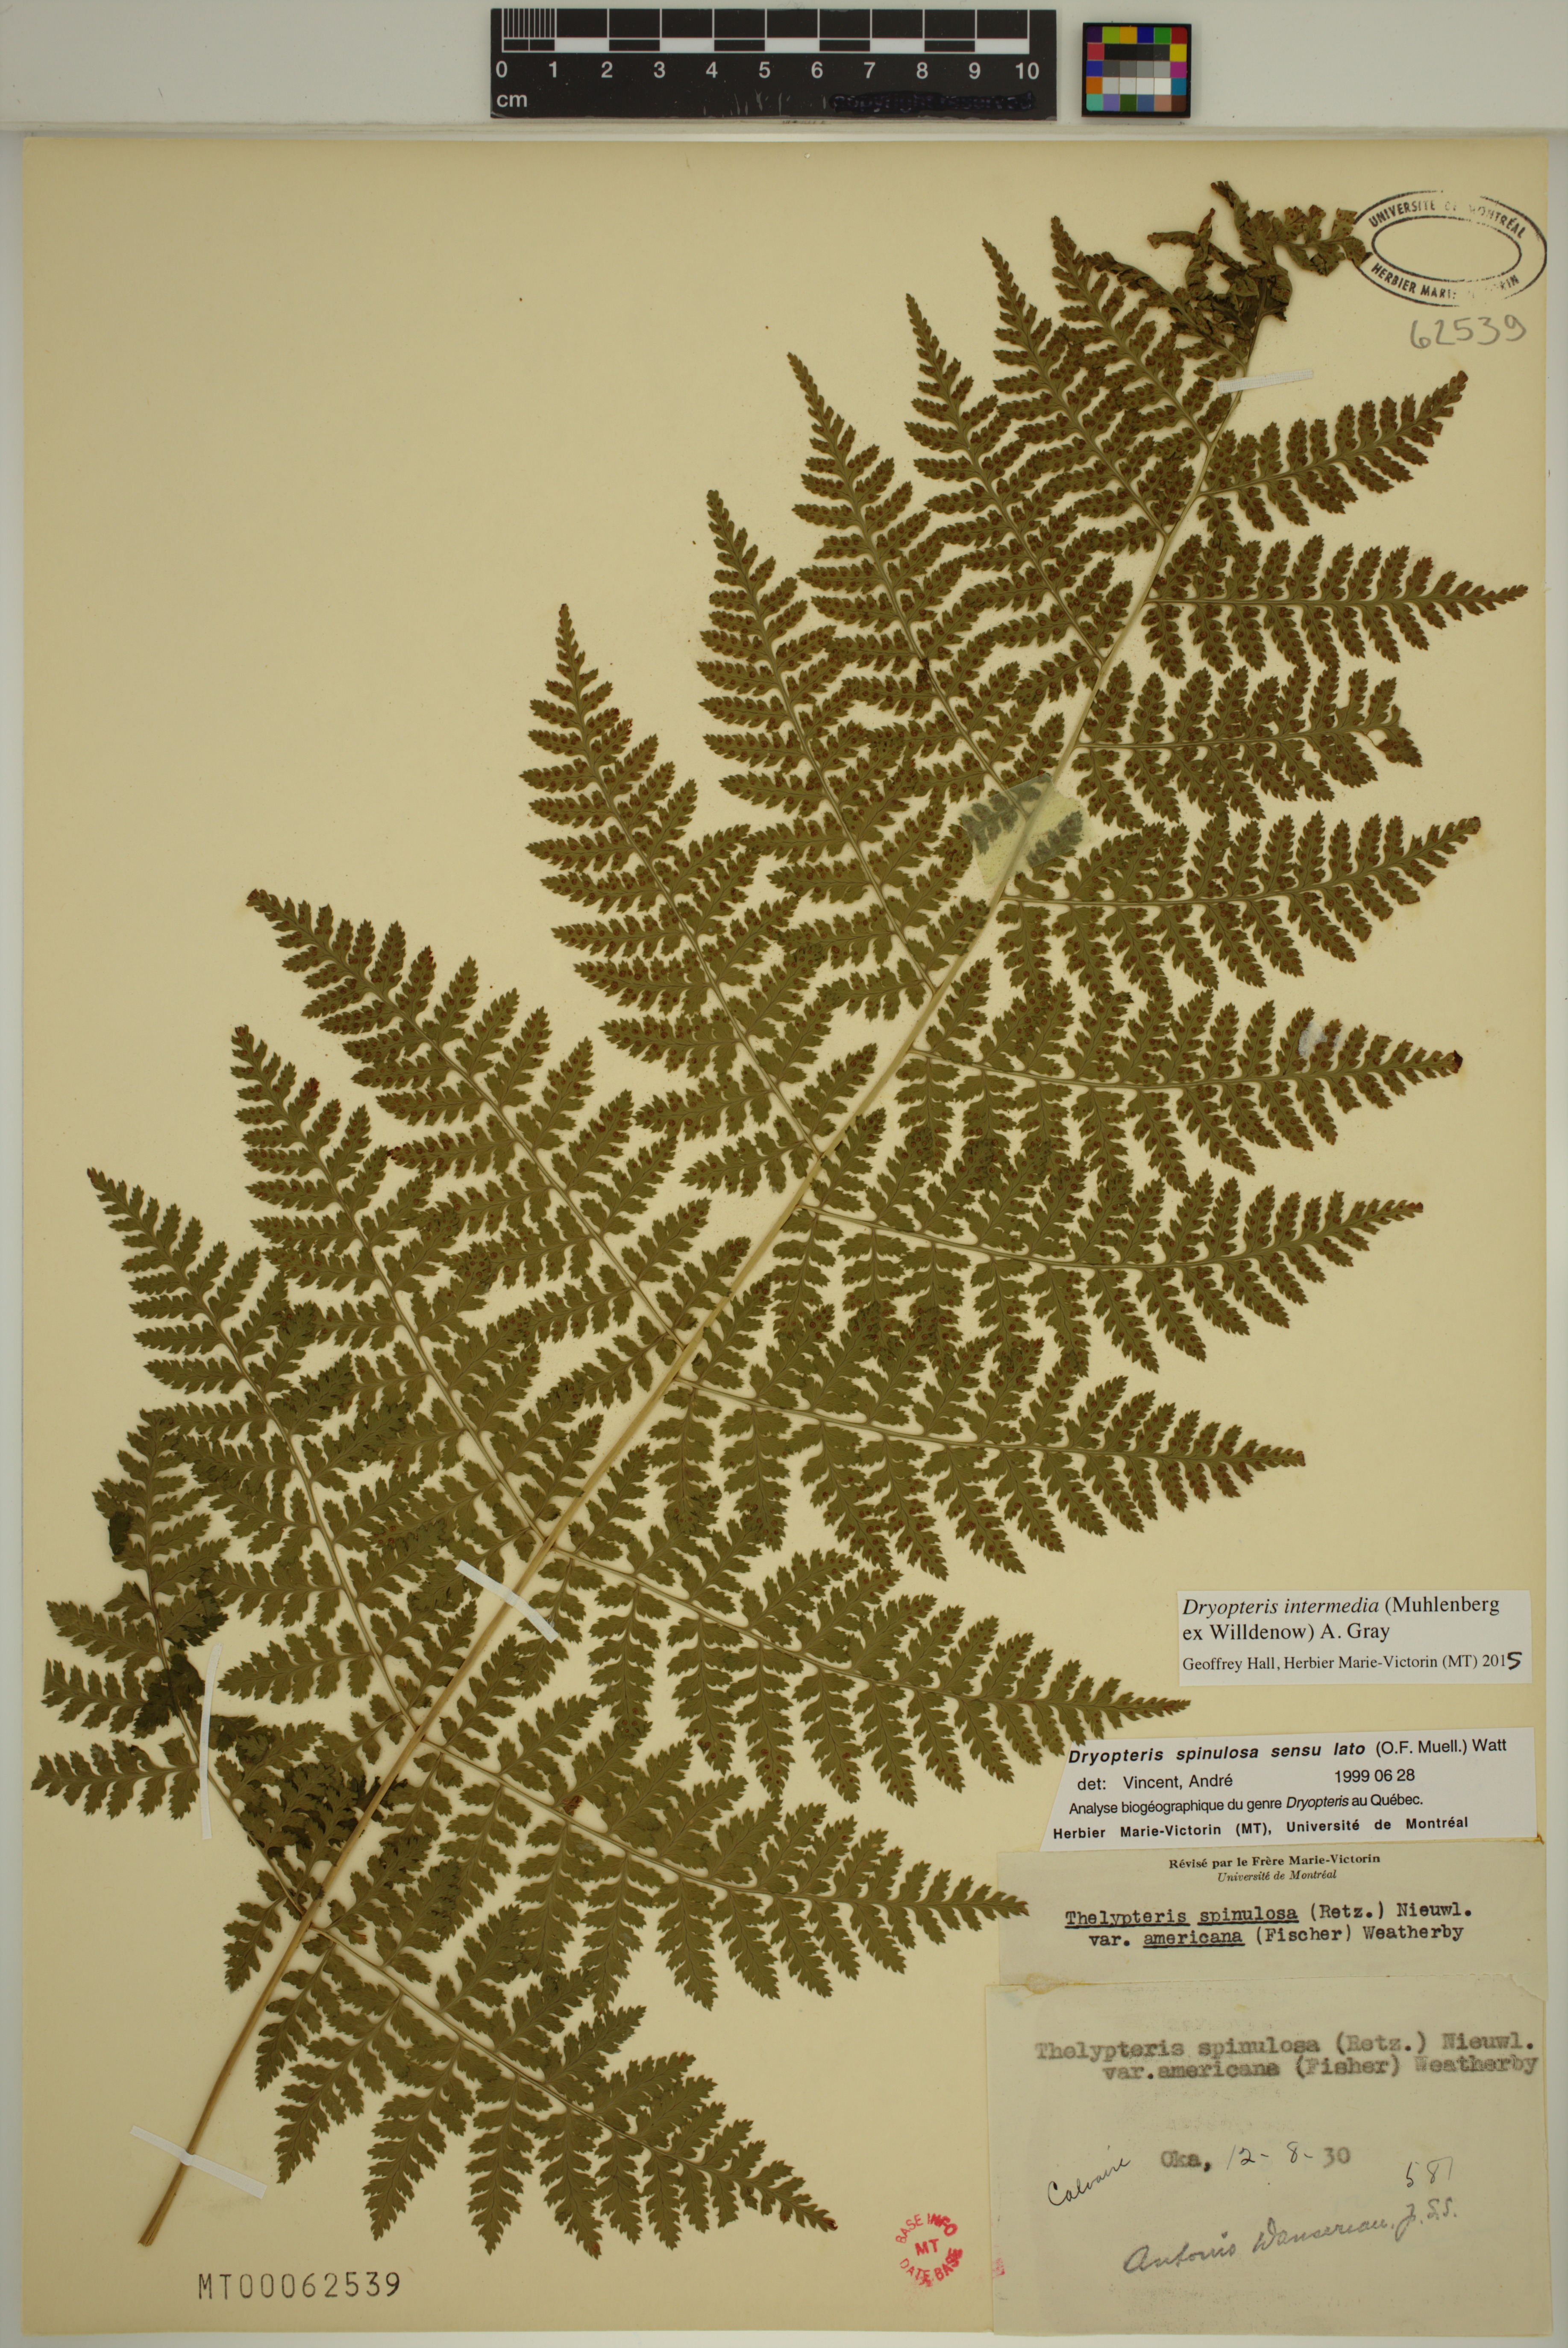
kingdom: Plantae
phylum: Tracheophyta
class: Polypodiopsida
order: Polypodiales
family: Dryopteridaceae
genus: Dryopteris
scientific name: Dryopteris intermedia
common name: Evergreen wood fern
